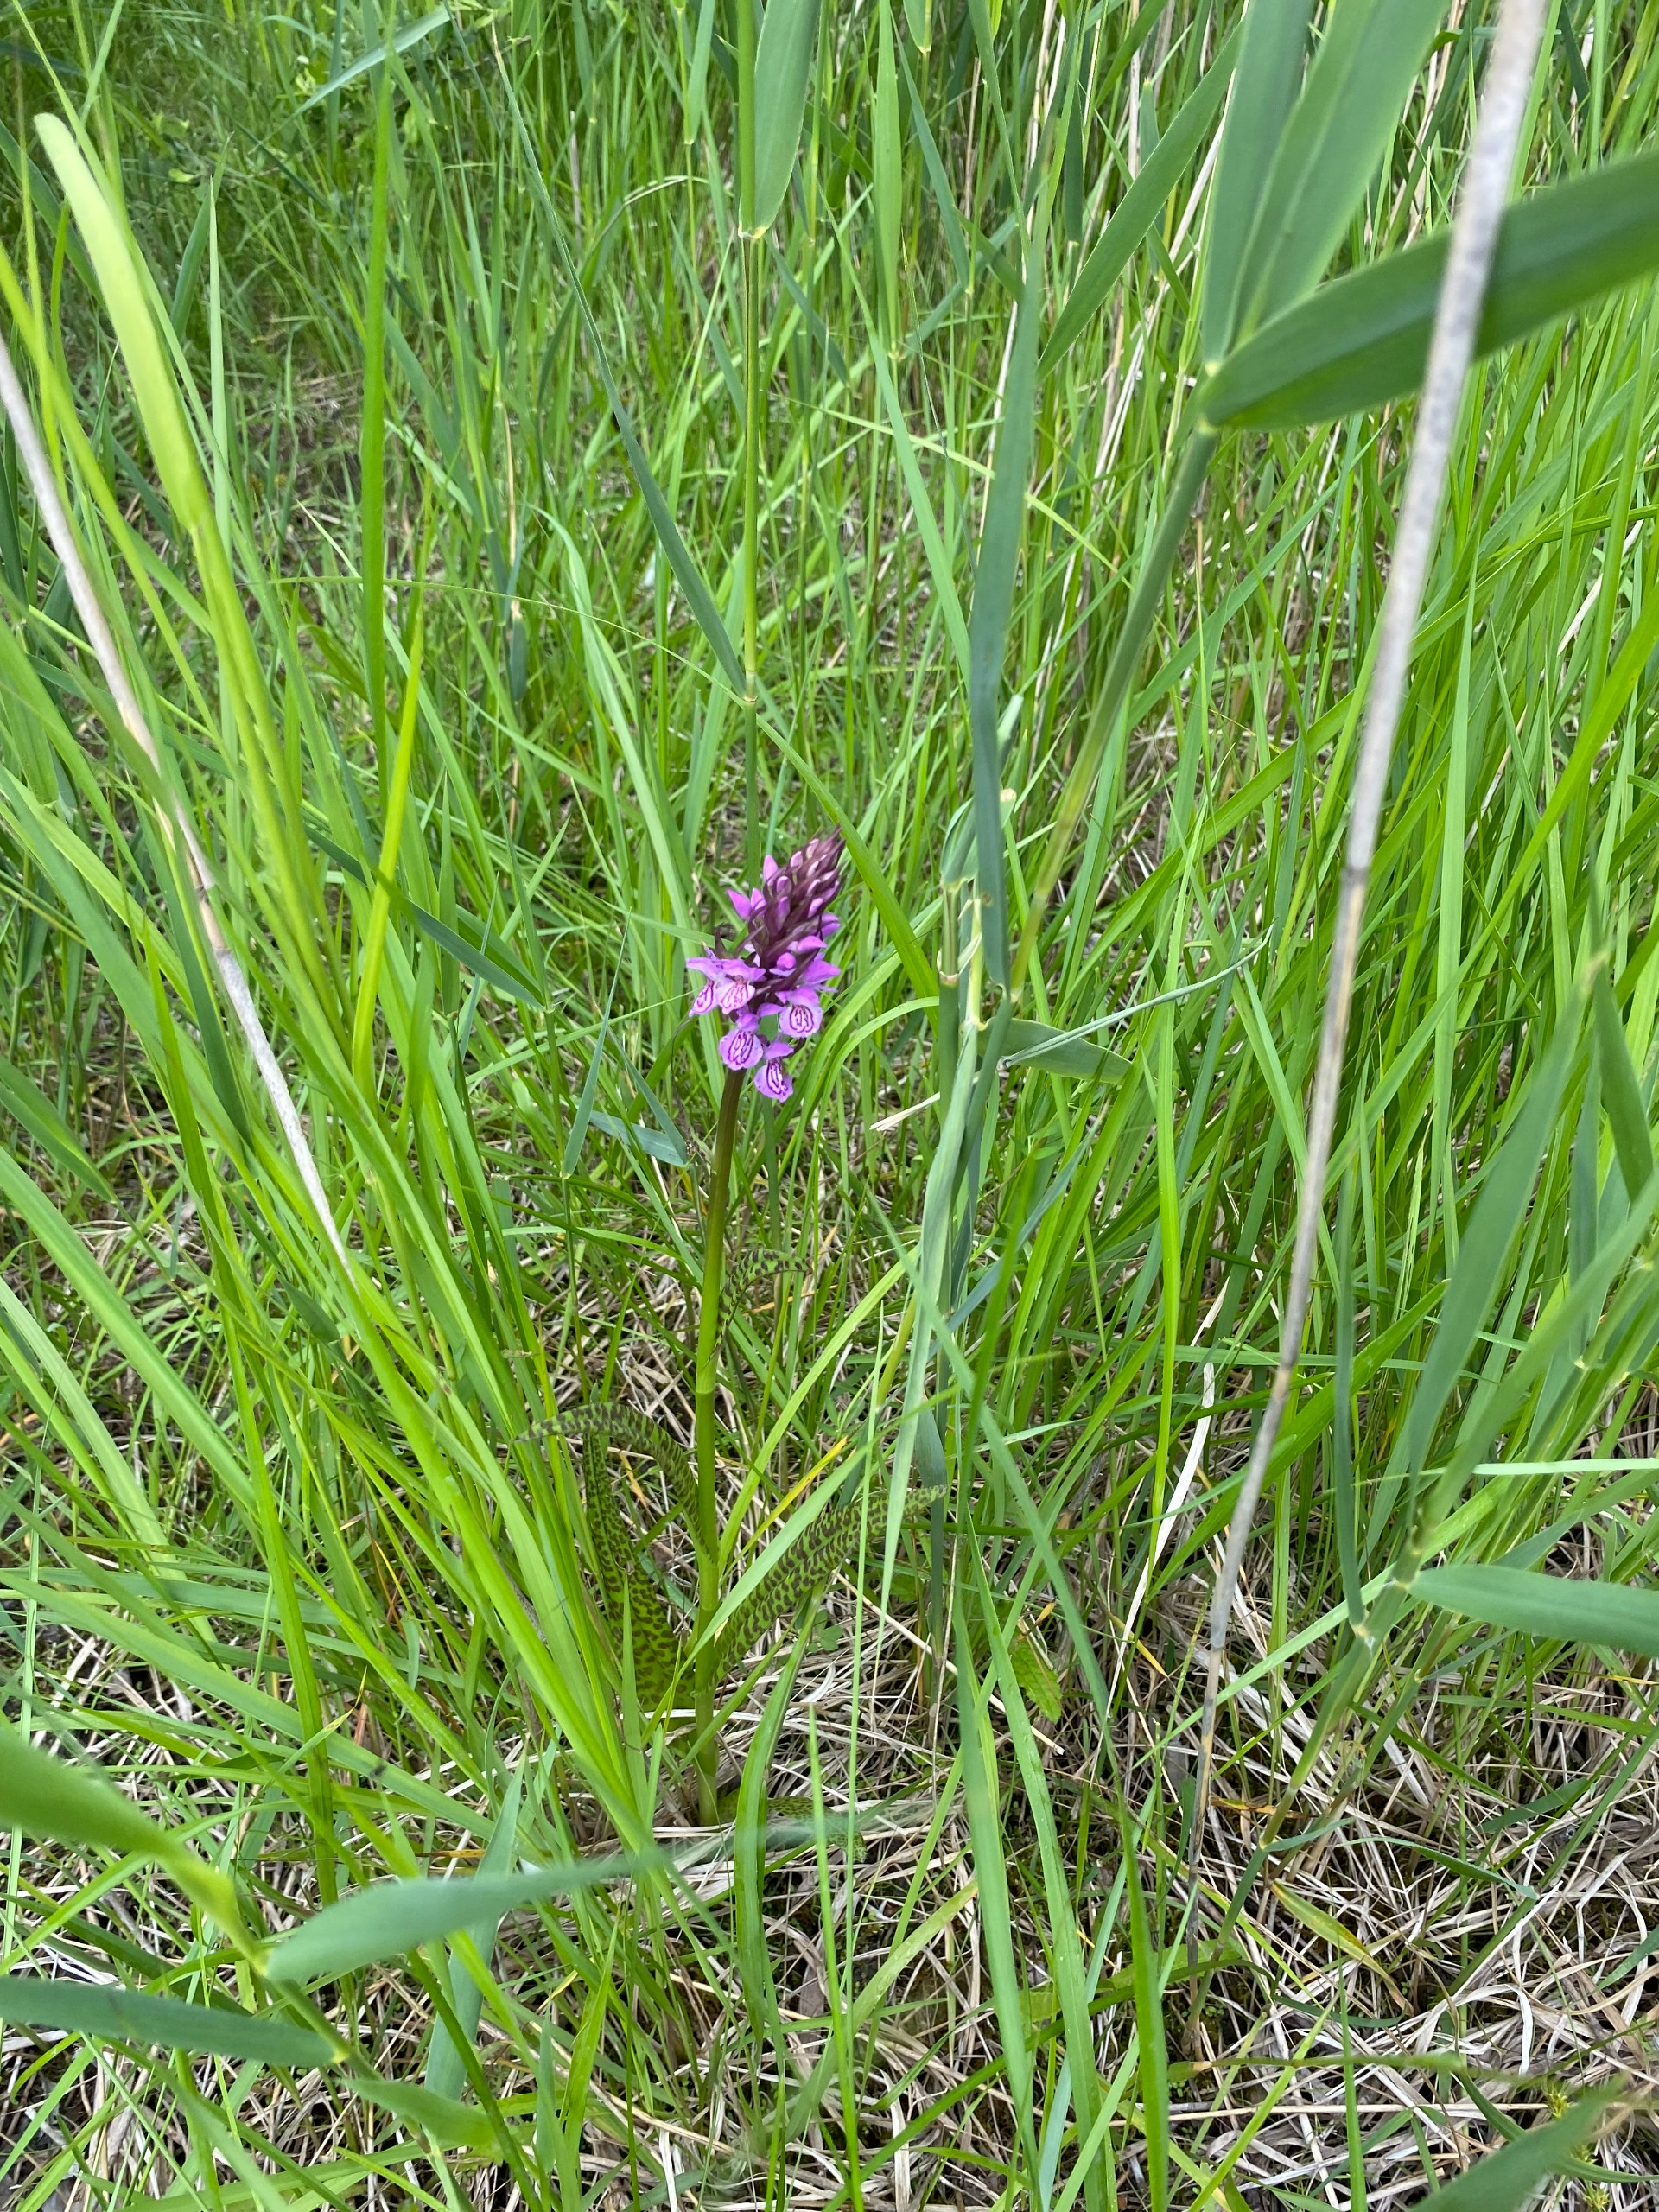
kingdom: Plantae
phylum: Tracheophyta
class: Liliopsida
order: Asparagales
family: Orchidaceae
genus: Dactylorhiza
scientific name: Dactylorhiza maculata
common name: Plettet gøgeurt
